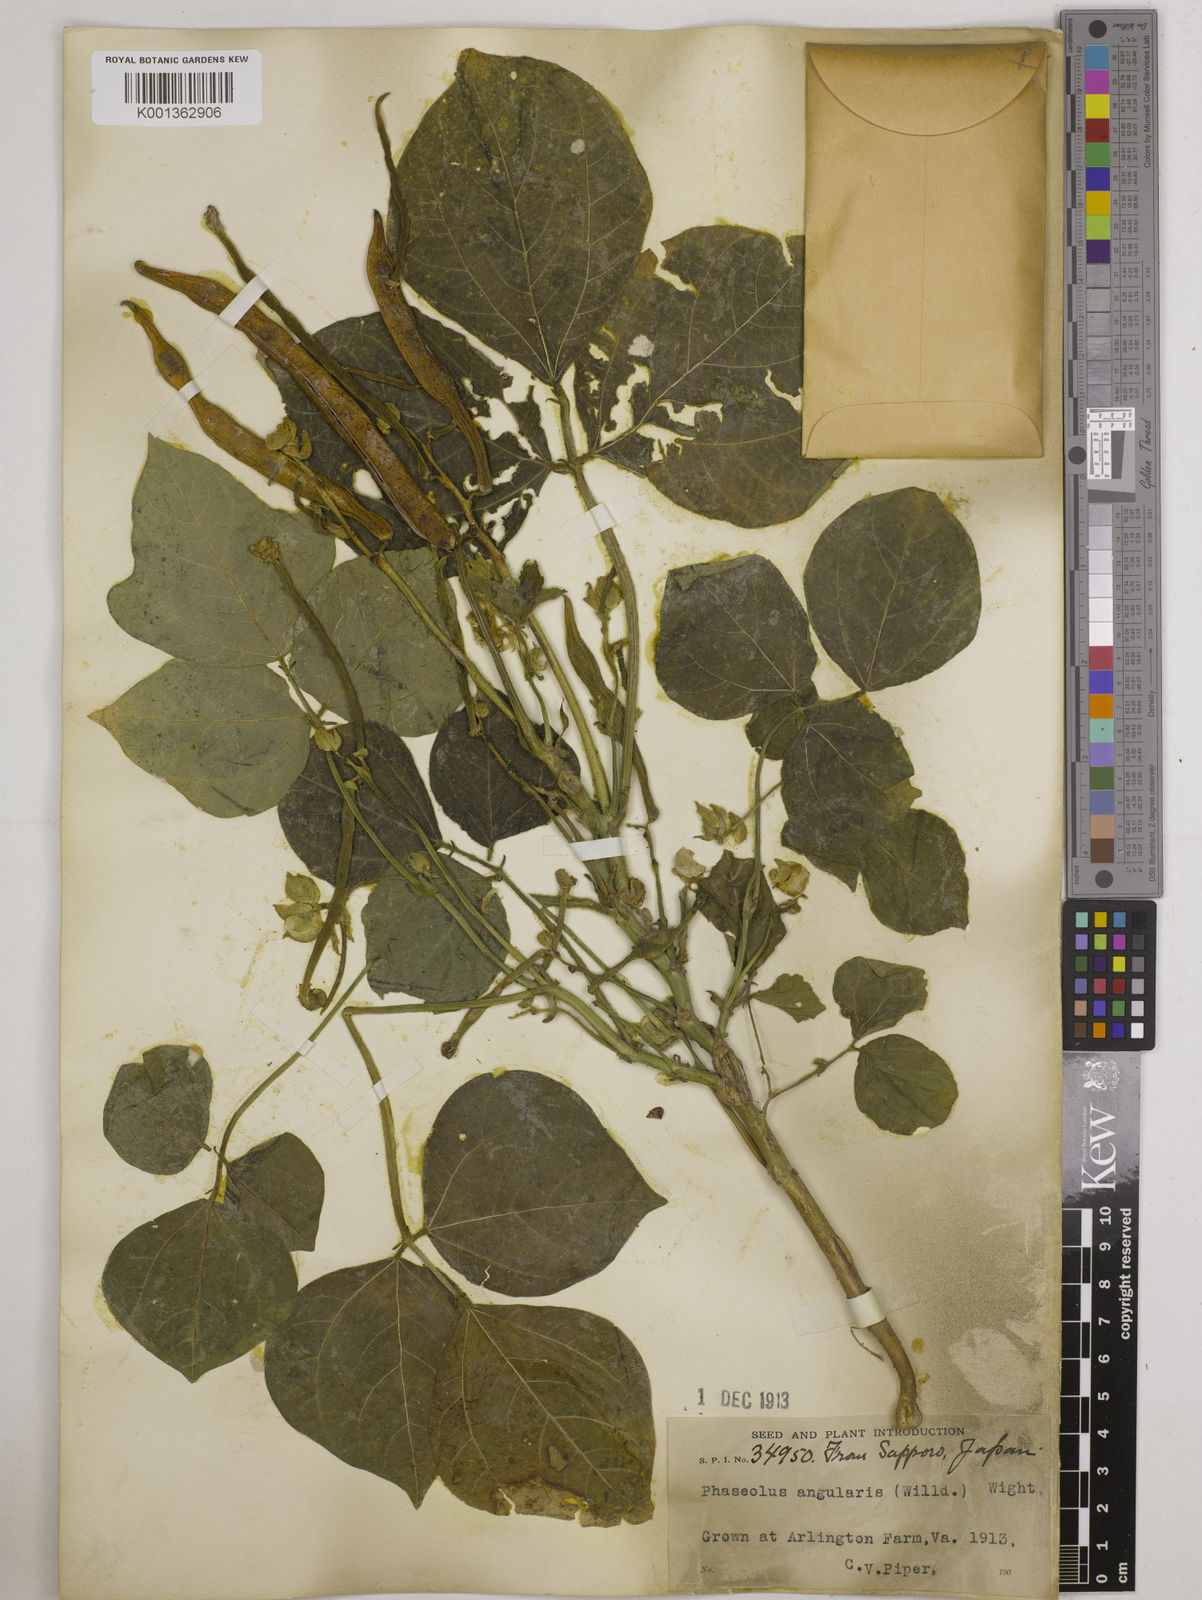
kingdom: Plantae
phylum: Tracheophyta
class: Magnoliopsida
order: Fabales
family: Fabaceae
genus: Vigna
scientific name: Vigna angularis
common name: Adzuki bean
